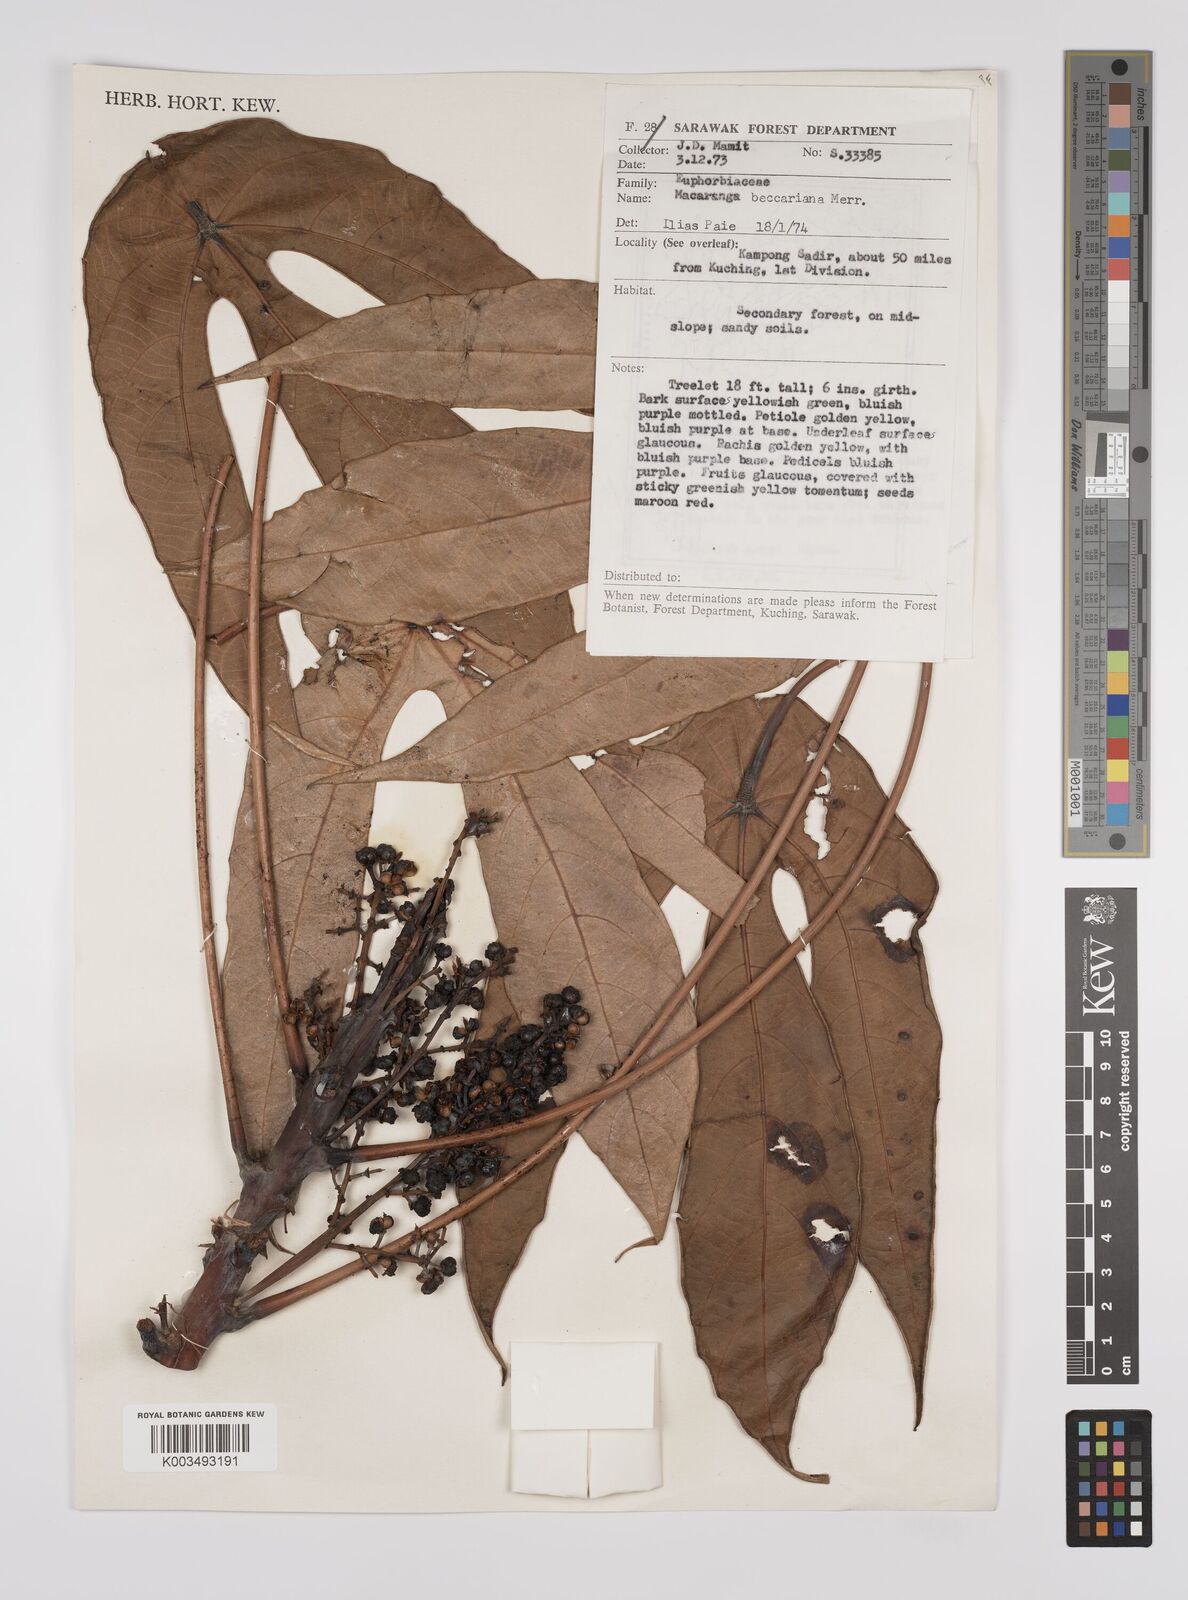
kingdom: Plantae
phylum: Tracheophyta
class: Magnoliopsida
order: Malpighiales
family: Euphorbiaceae
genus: Macaranga
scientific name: Macaranga beccariana
